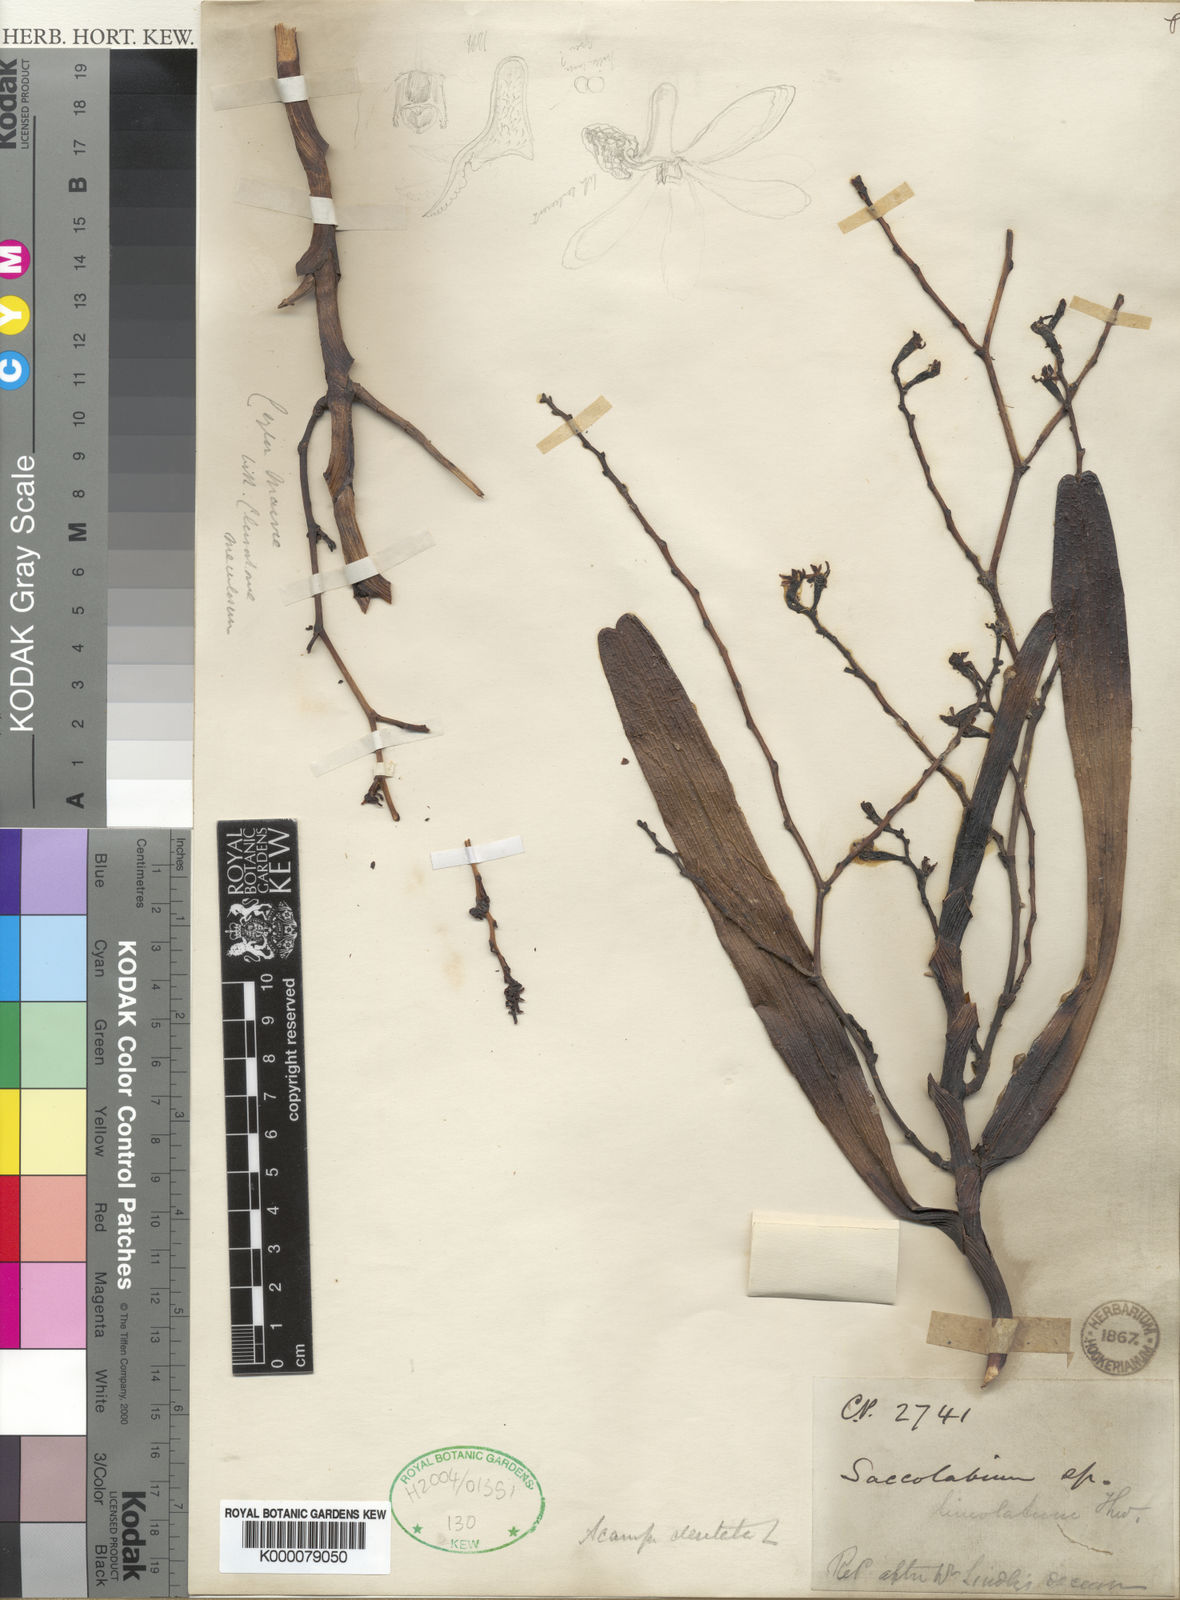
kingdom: Plantae
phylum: Tracheophyta
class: Liliopsida
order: Asparagales
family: Orchidaceae
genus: Acampe
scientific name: Acampe ochracea
